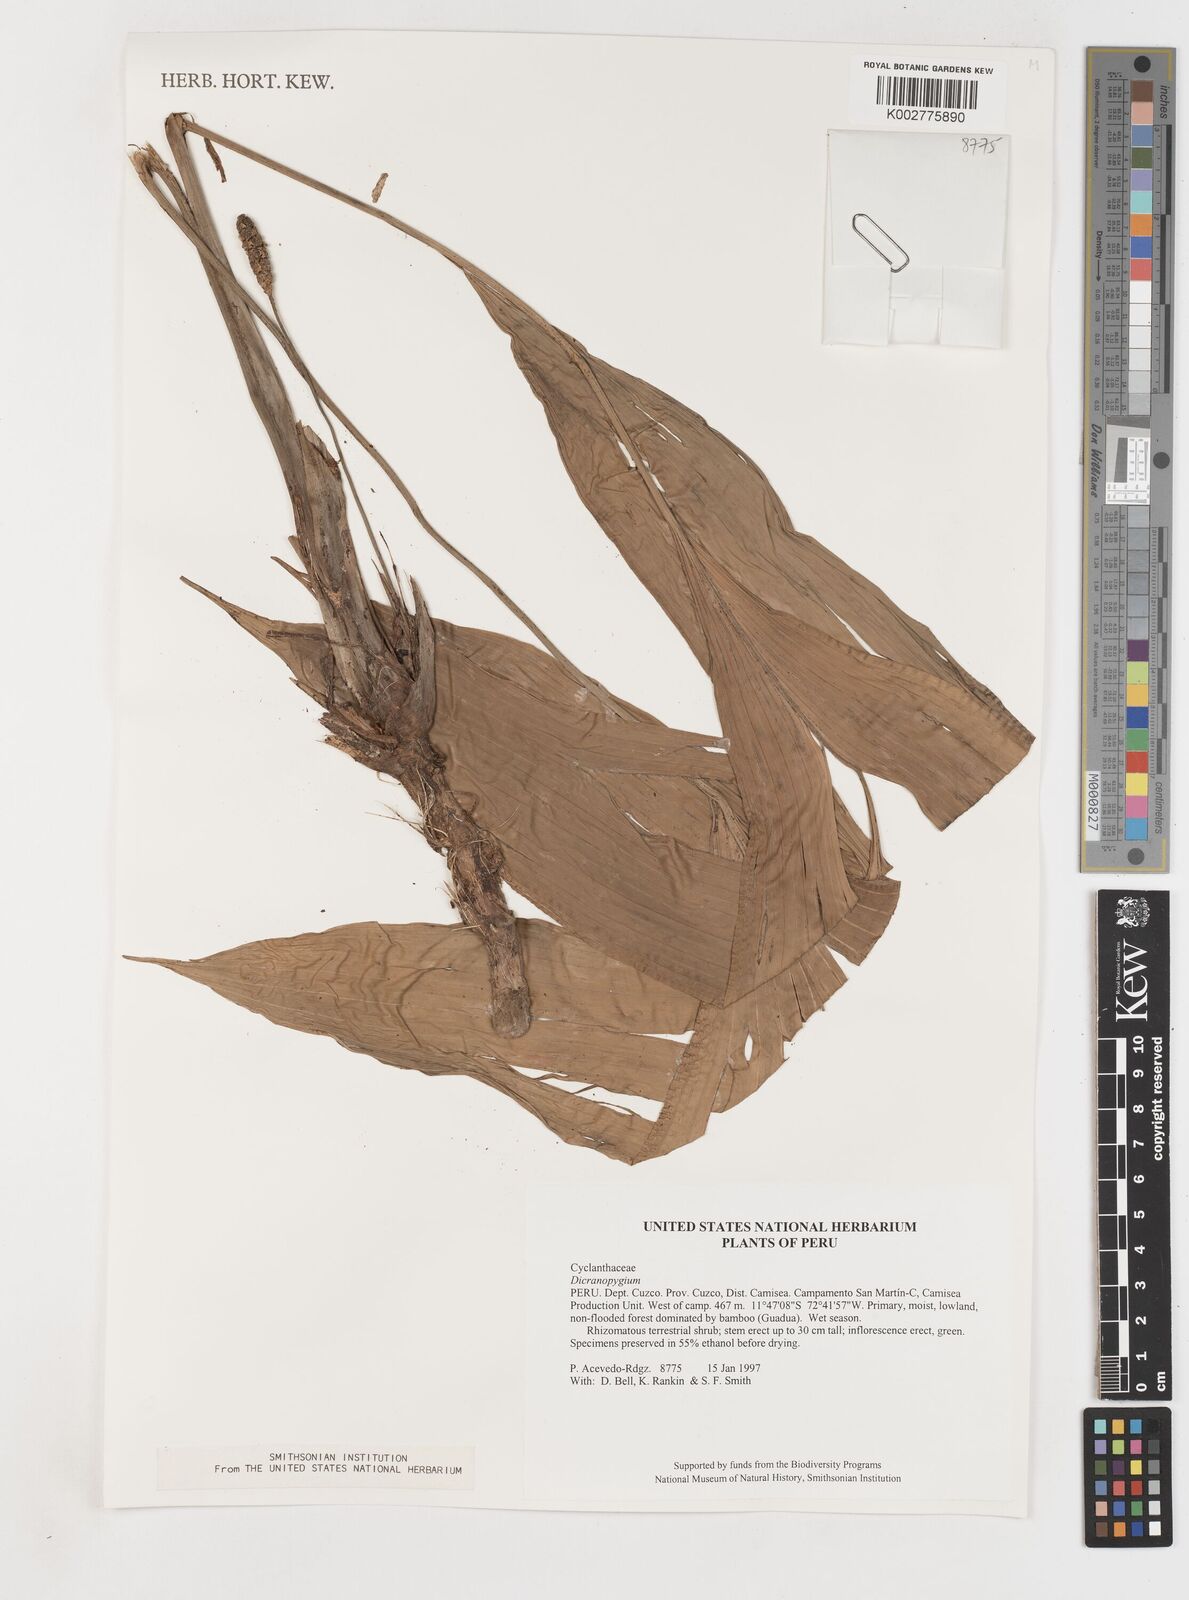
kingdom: Plantae
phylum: Tracheophyta
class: Liliopsida
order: Pandanales
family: Cyclanthaceae
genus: Dicranopygium
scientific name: Dicranopygium
